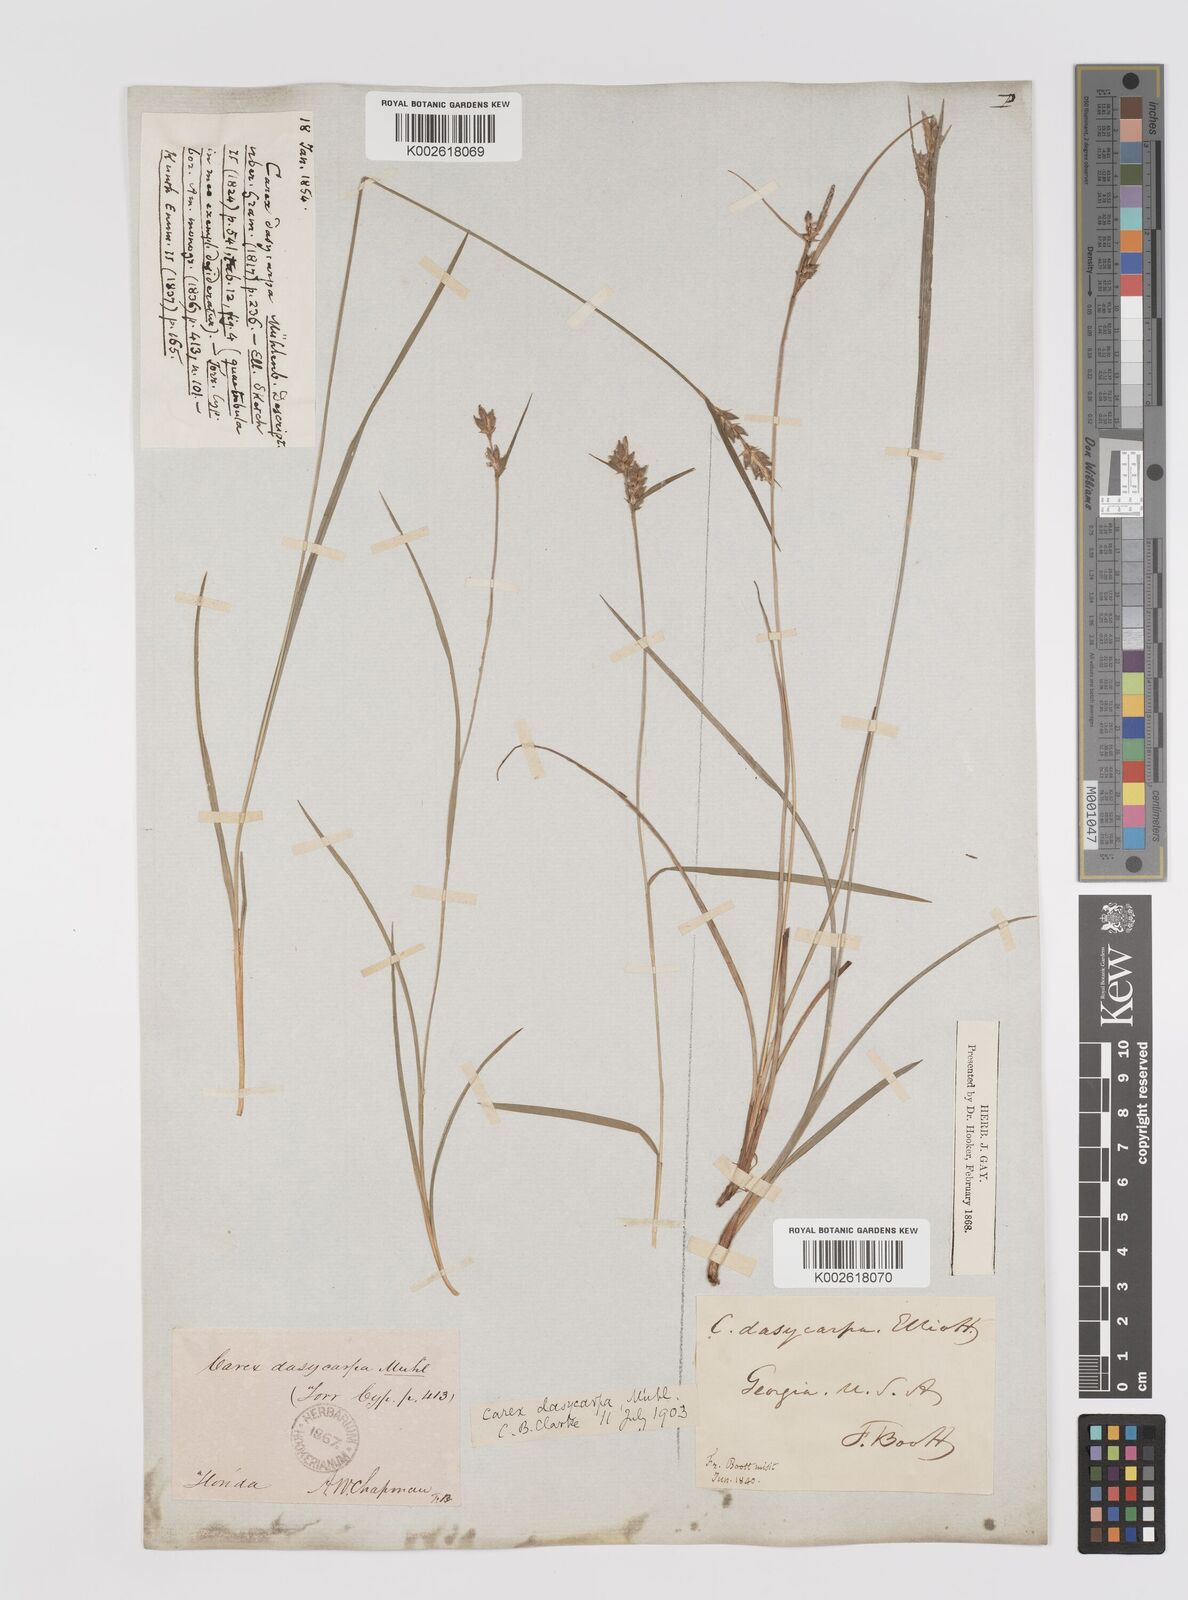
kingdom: Plantae
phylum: Tracheophyta
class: Liliopsida
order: Poales
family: Cyperaceae
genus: Carex
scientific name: Carex dasycarpa
